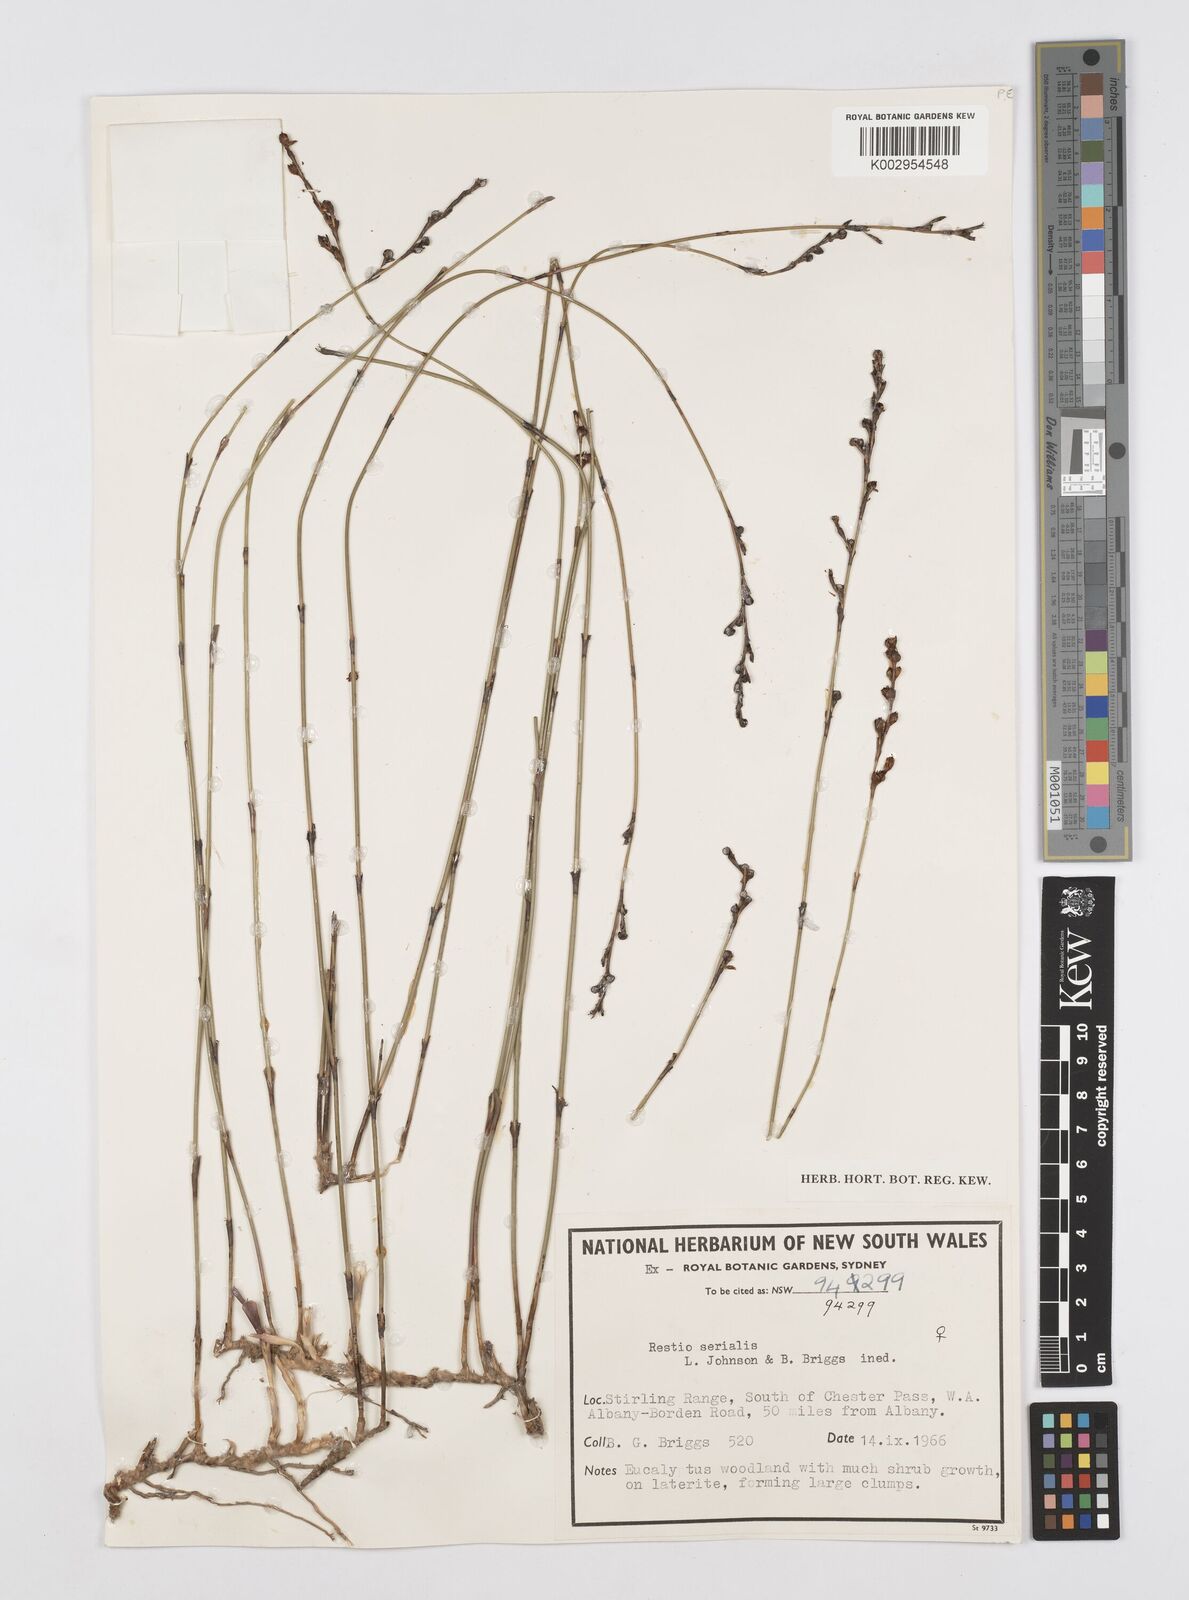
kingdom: Plantae
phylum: Tracheophyta
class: Liliopsida
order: Poales
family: Restionaceae
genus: Chordifex
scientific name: Chordifex isomorphus
